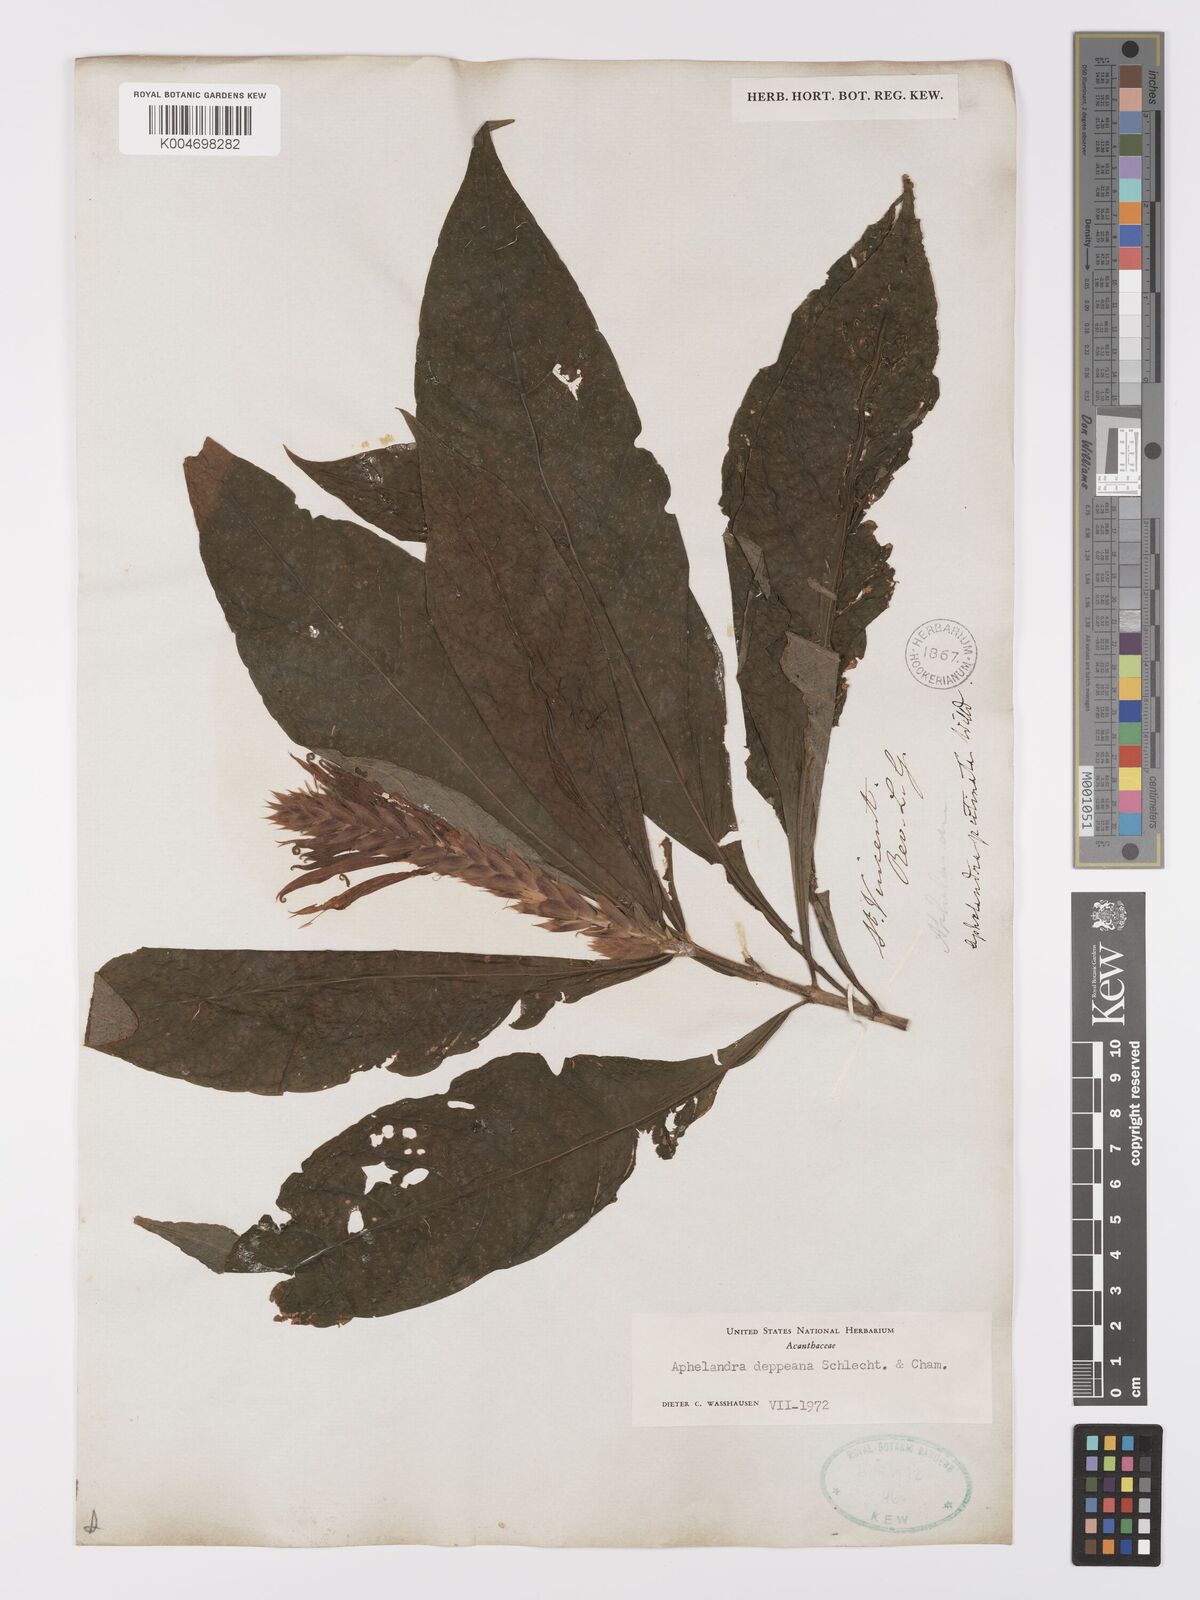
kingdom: Plantae
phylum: Tracheophyta
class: Magnoliopsida
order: Lamiales
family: Acanthaceae
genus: Aphelandra
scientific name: Aphelandra scabra
